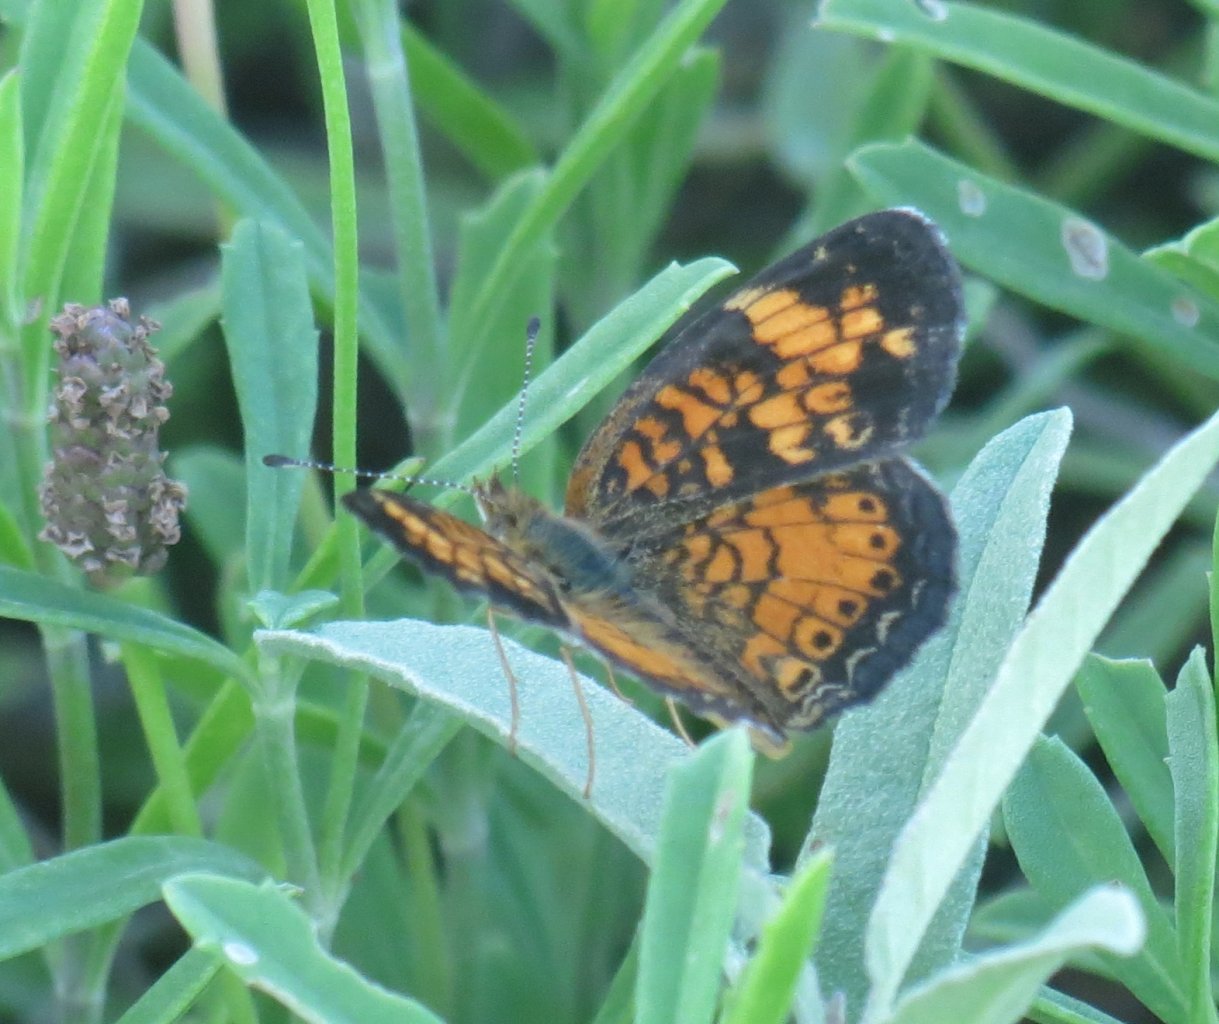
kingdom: Animalia
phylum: Arthropoda
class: Insecta
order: Lepidoptera
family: Nymphalidae
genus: Phyciodes
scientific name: Phyciodes tharos
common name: Pearl Crescent
